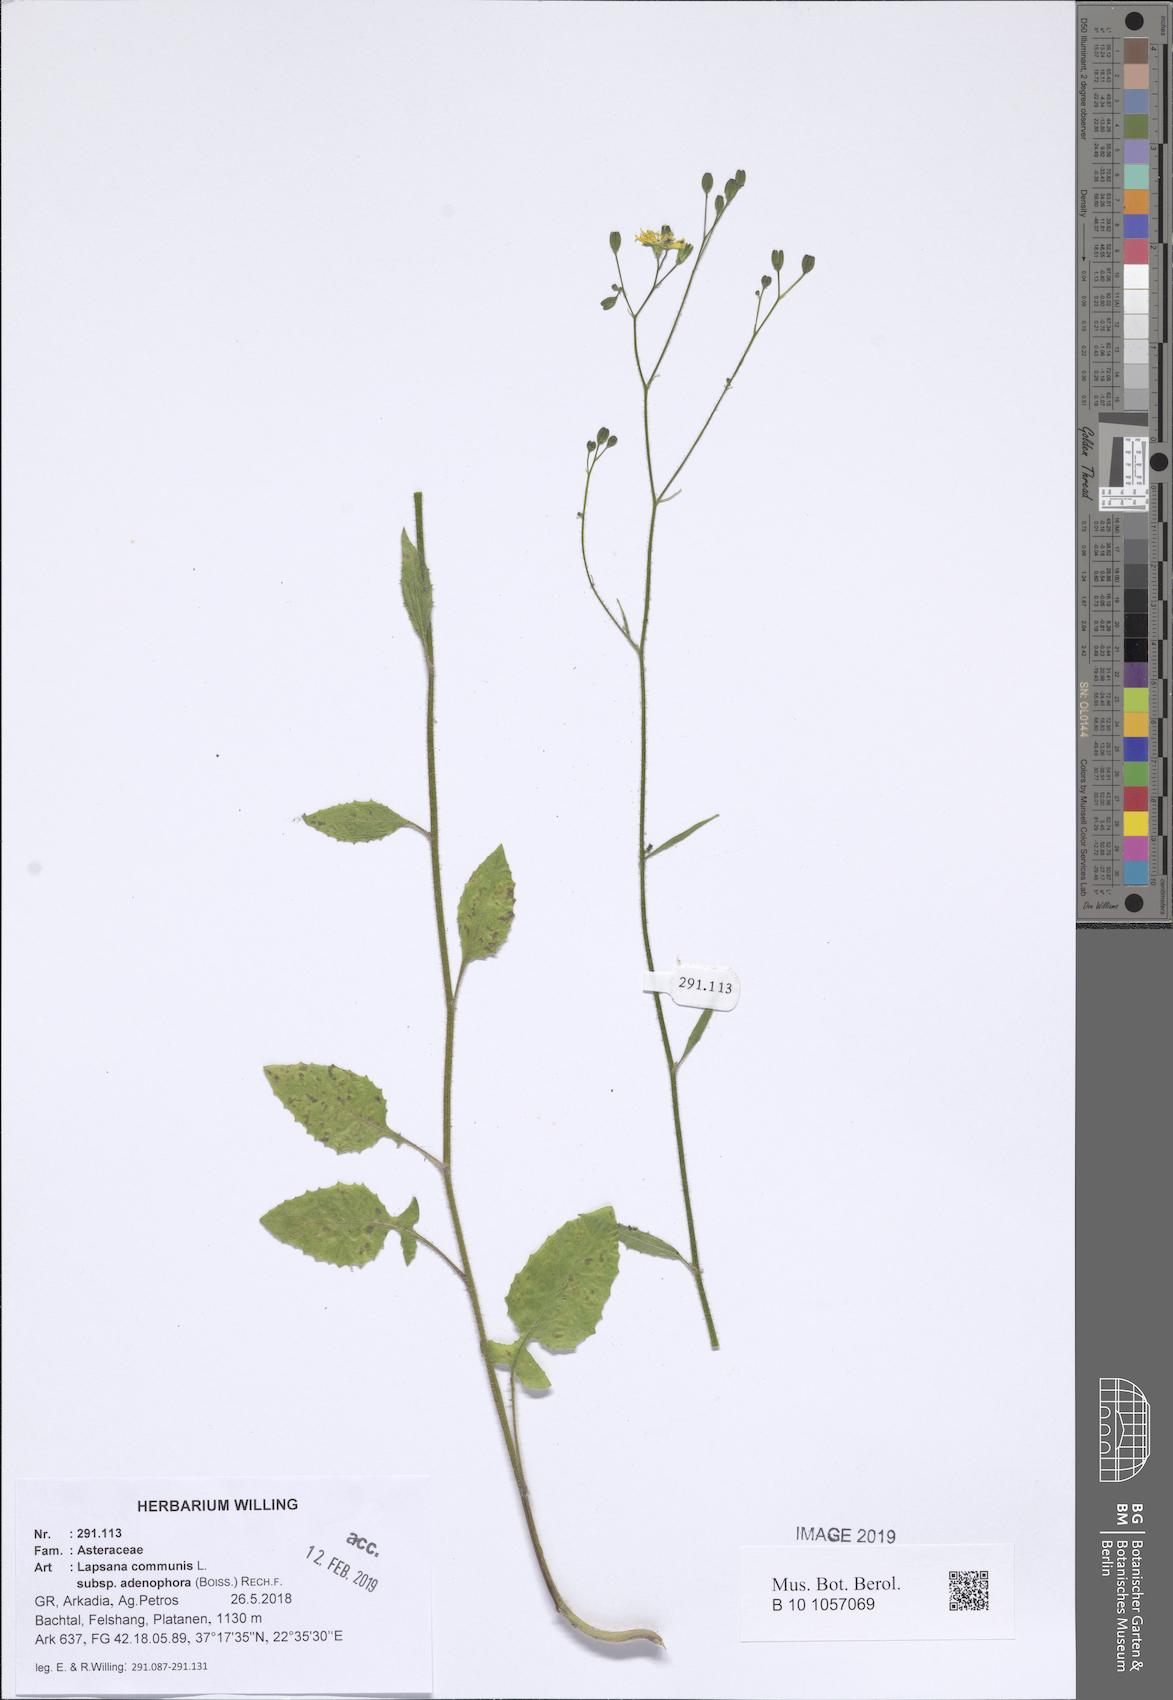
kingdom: Plantae
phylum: Tracheophyta
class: Magnoliopsida
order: Asterales
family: Asteraceae
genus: Lapsana
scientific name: Lapsana communis
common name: Nipplewort
